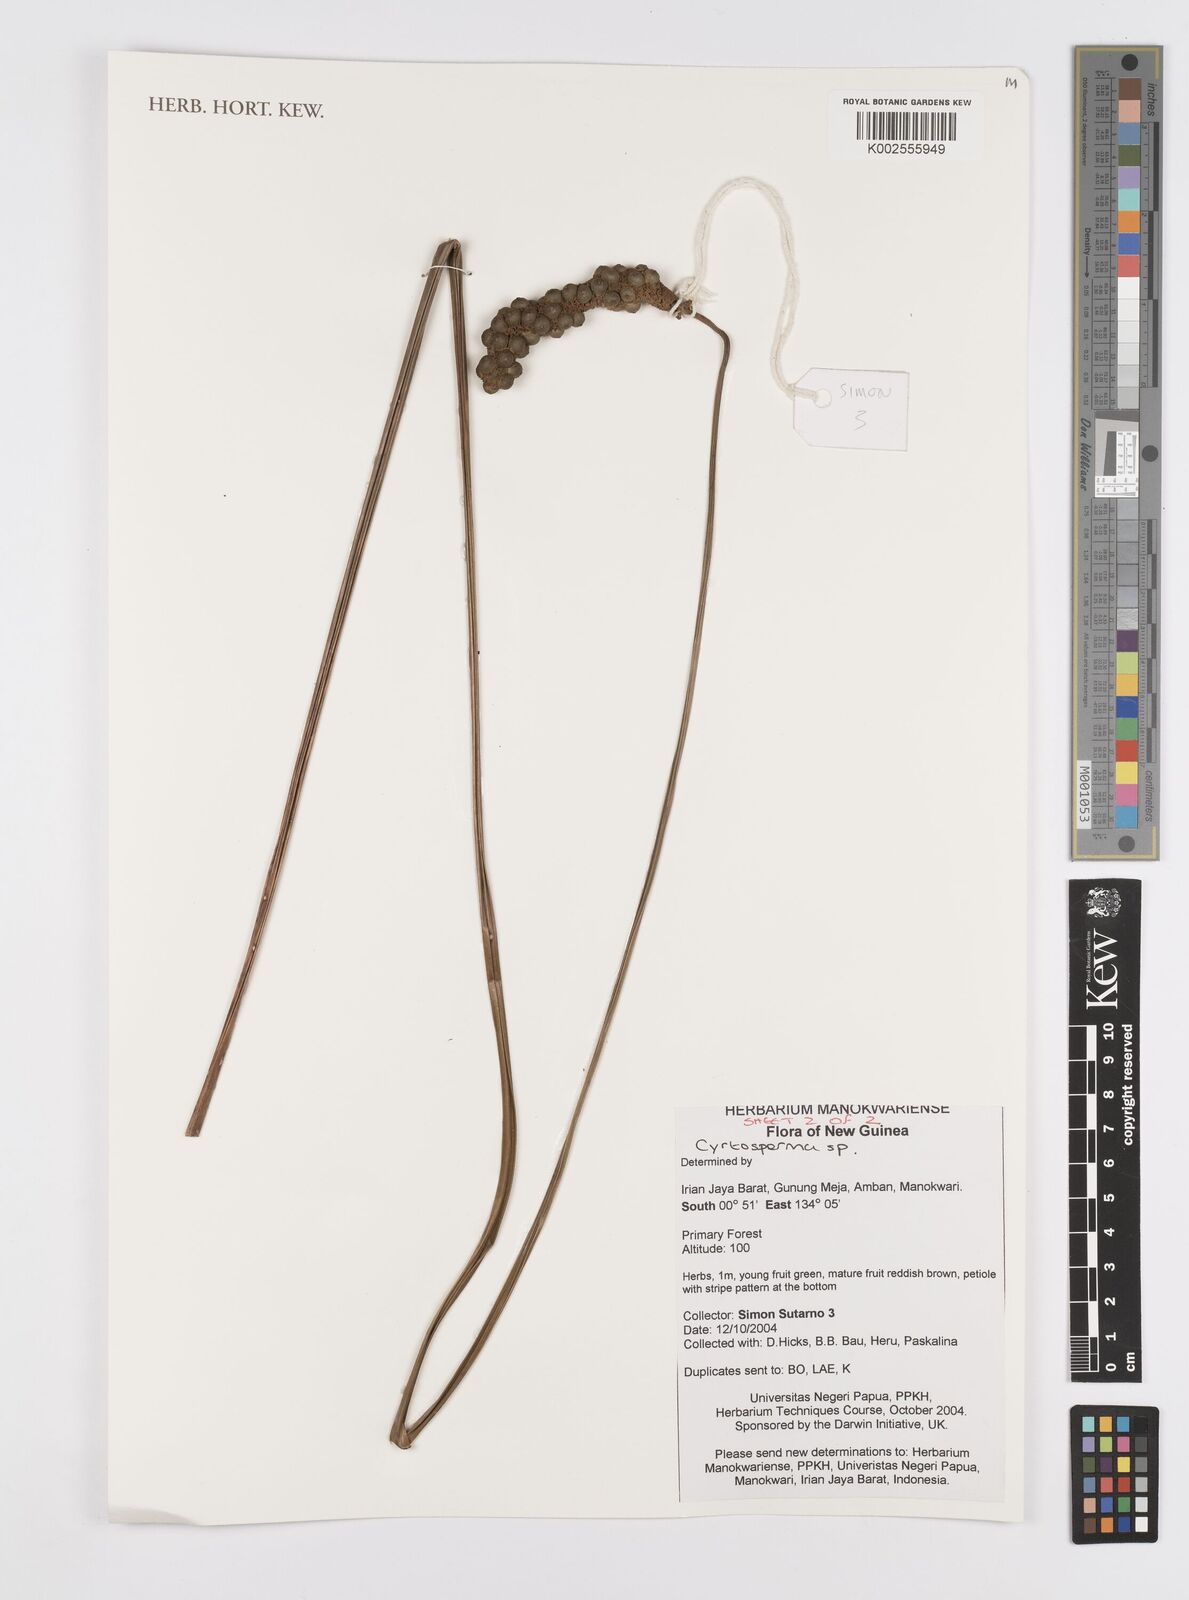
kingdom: Plantae
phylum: Tracheophyta
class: Liliopsida
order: Alismatales
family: Araceae
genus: Cyrtosperma
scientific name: Cyrtosperma
